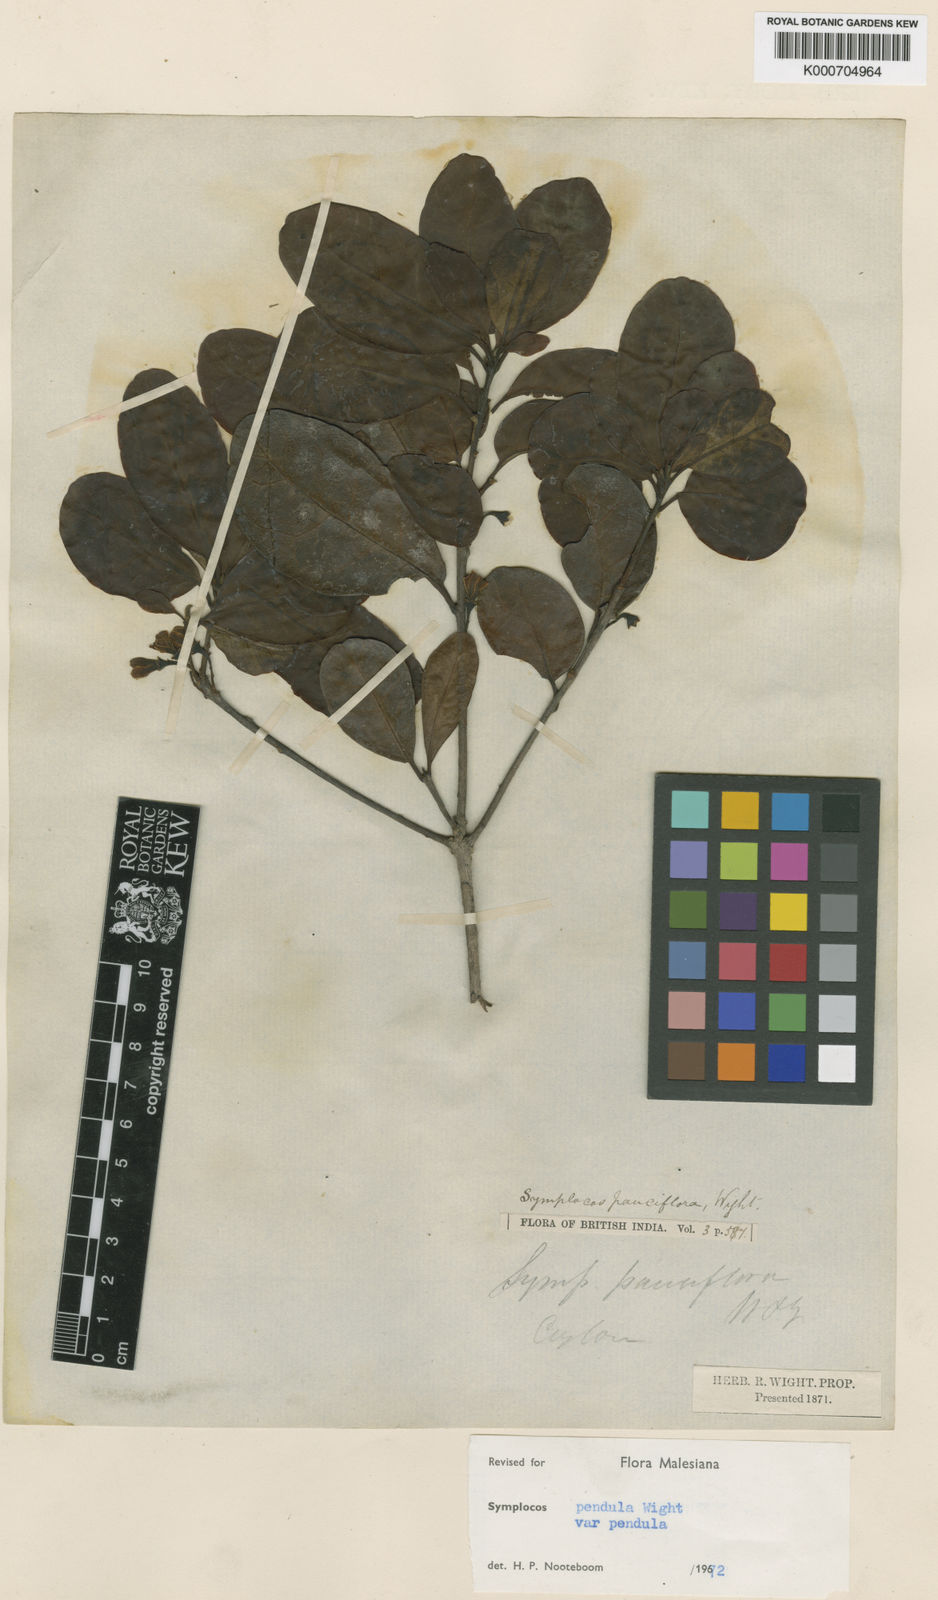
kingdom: Plantae
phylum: Tracheophyta
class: Magnoliopsida
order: Ericales
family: Symplocaceae
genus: Symplocos
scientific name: Symplocos pendula
